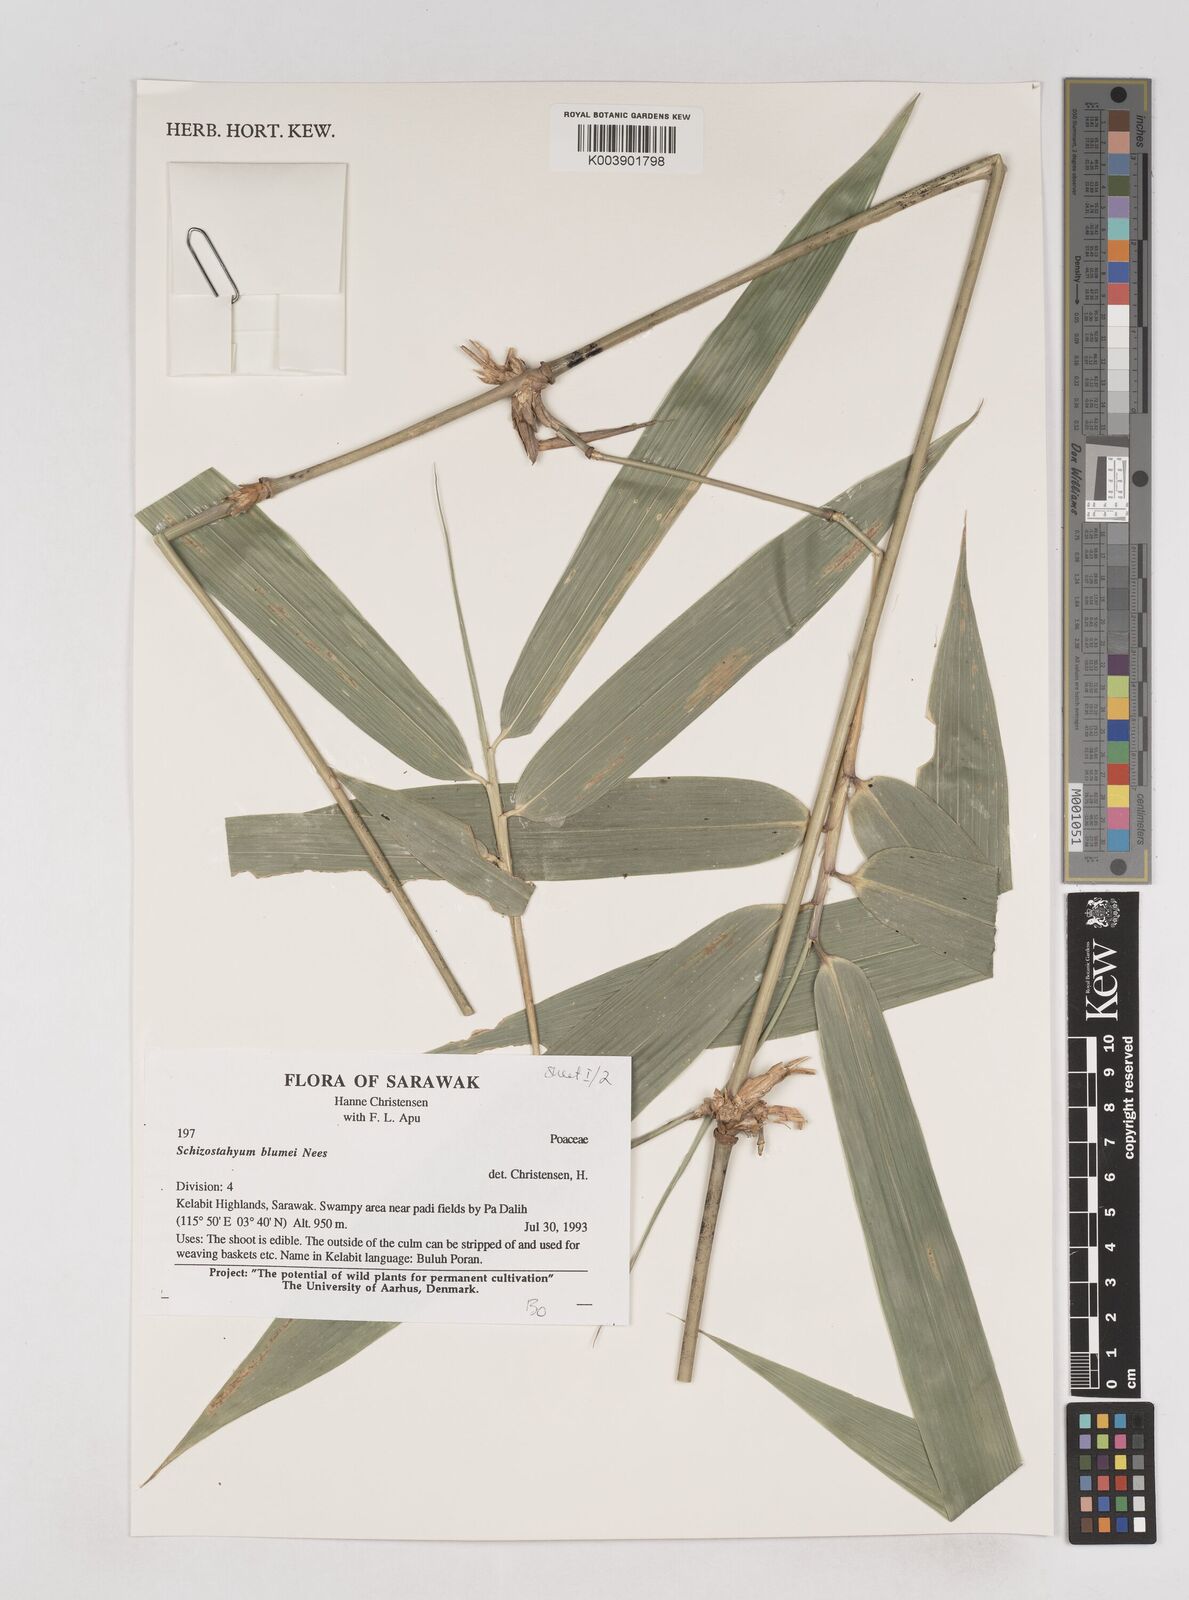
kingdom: Plantae
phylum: Tracheophyta
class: Liliopsida
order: Poales
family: Poaceae
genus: Schizostachyum
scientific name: Schizostachyum blumei
